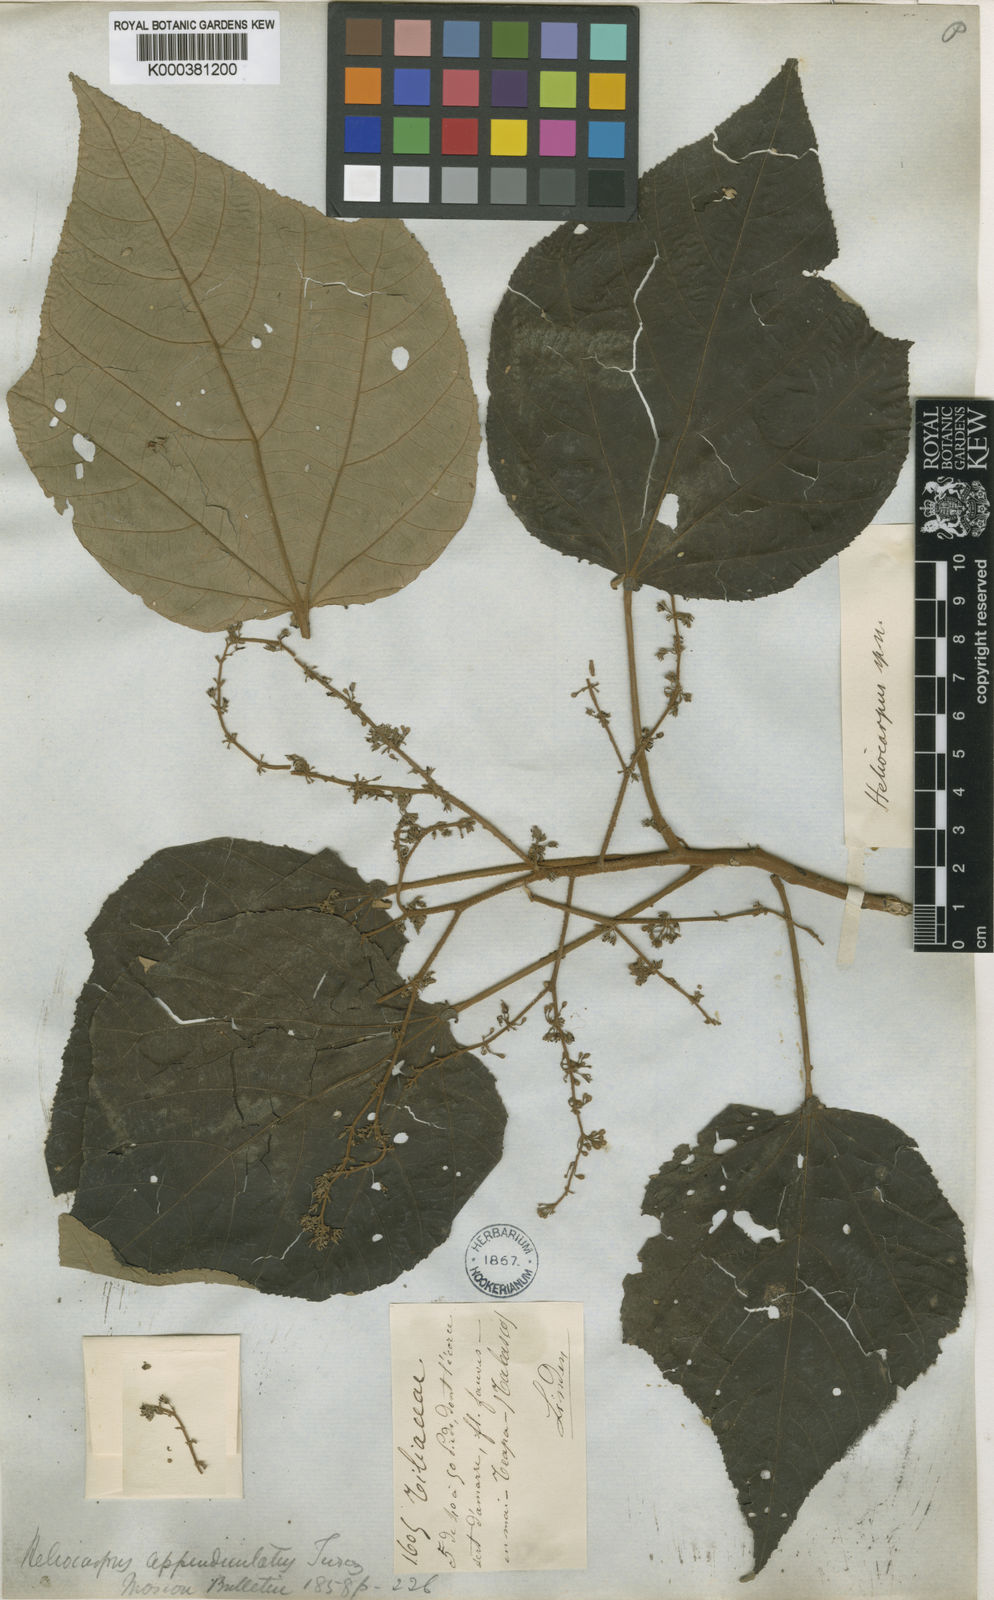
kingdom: Plantae
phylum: Tracheophyta
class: Magnoliopsida
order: Malvales
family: Malvaceae
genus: Heliocarpus
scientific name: Heliocarpus appendiculatus
